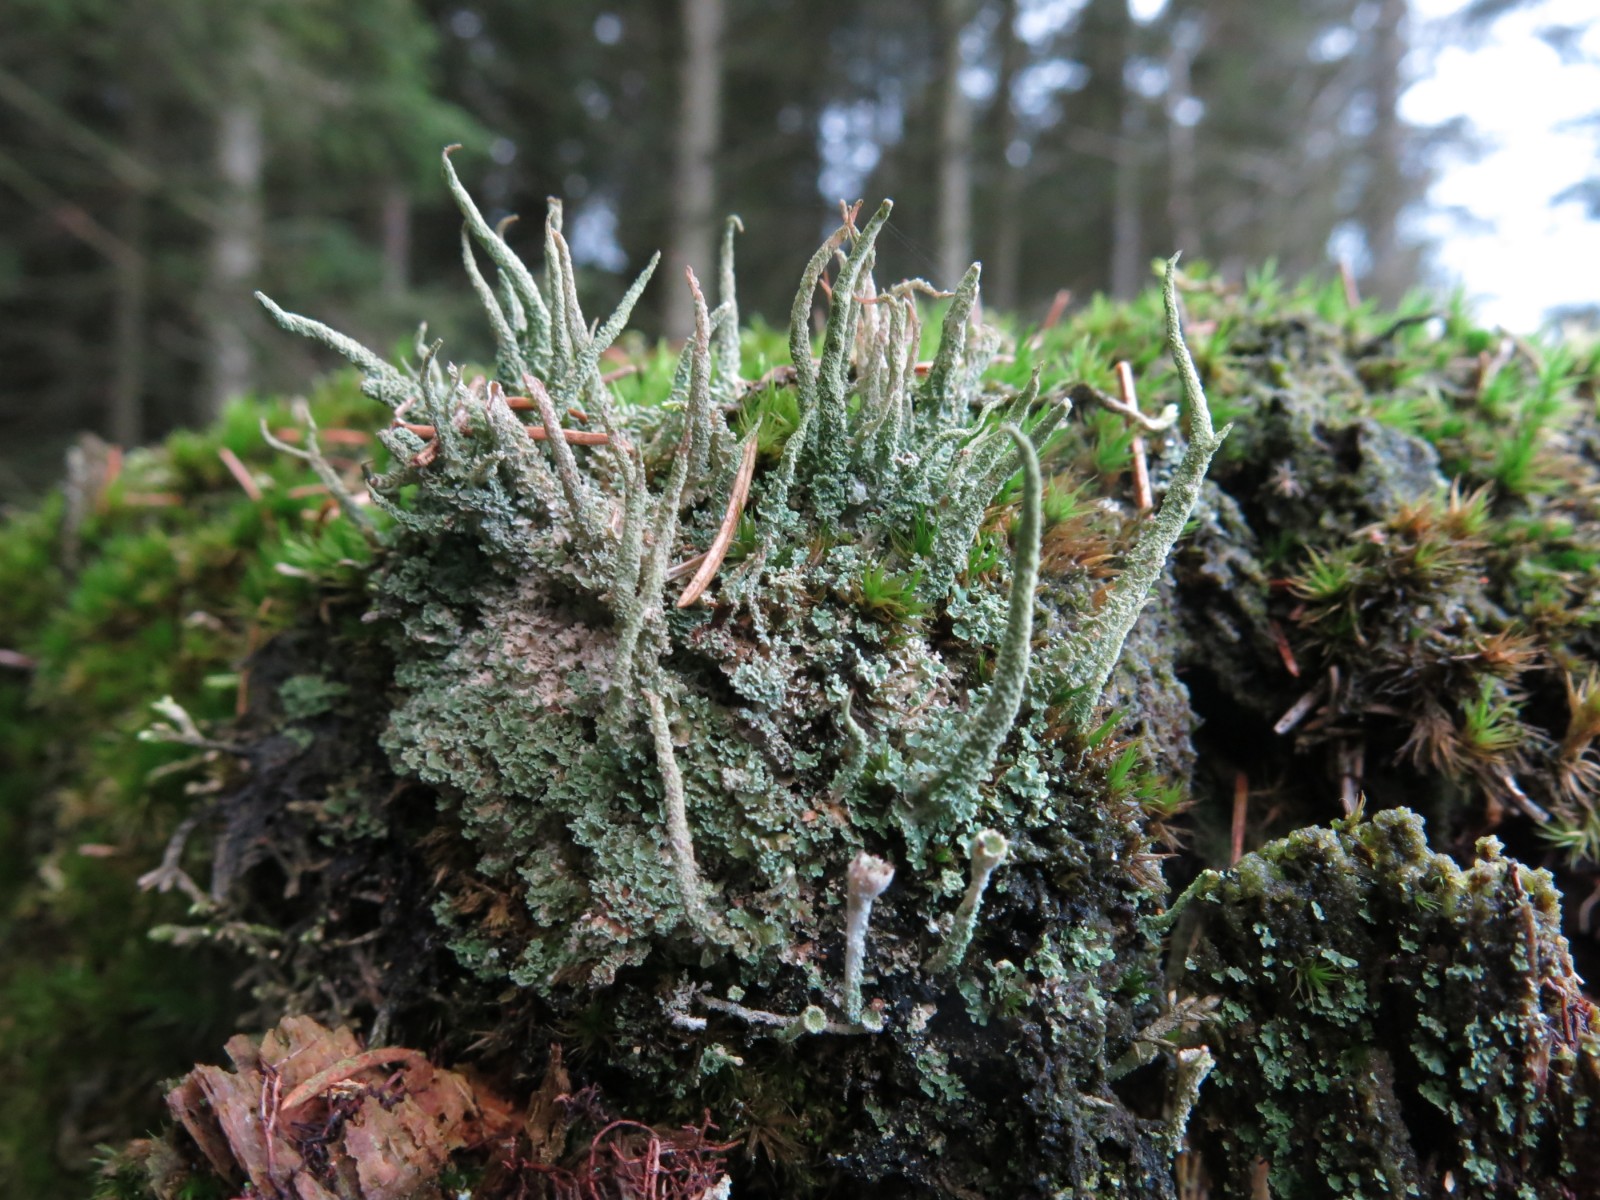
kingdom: Fungi
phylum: Ascomycota
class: Lecanoromycetes
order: Lecanorales
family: Cladoniaceae
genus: Cladonia
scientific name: Cladonia coniocraea
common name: træfods-bægerlav
